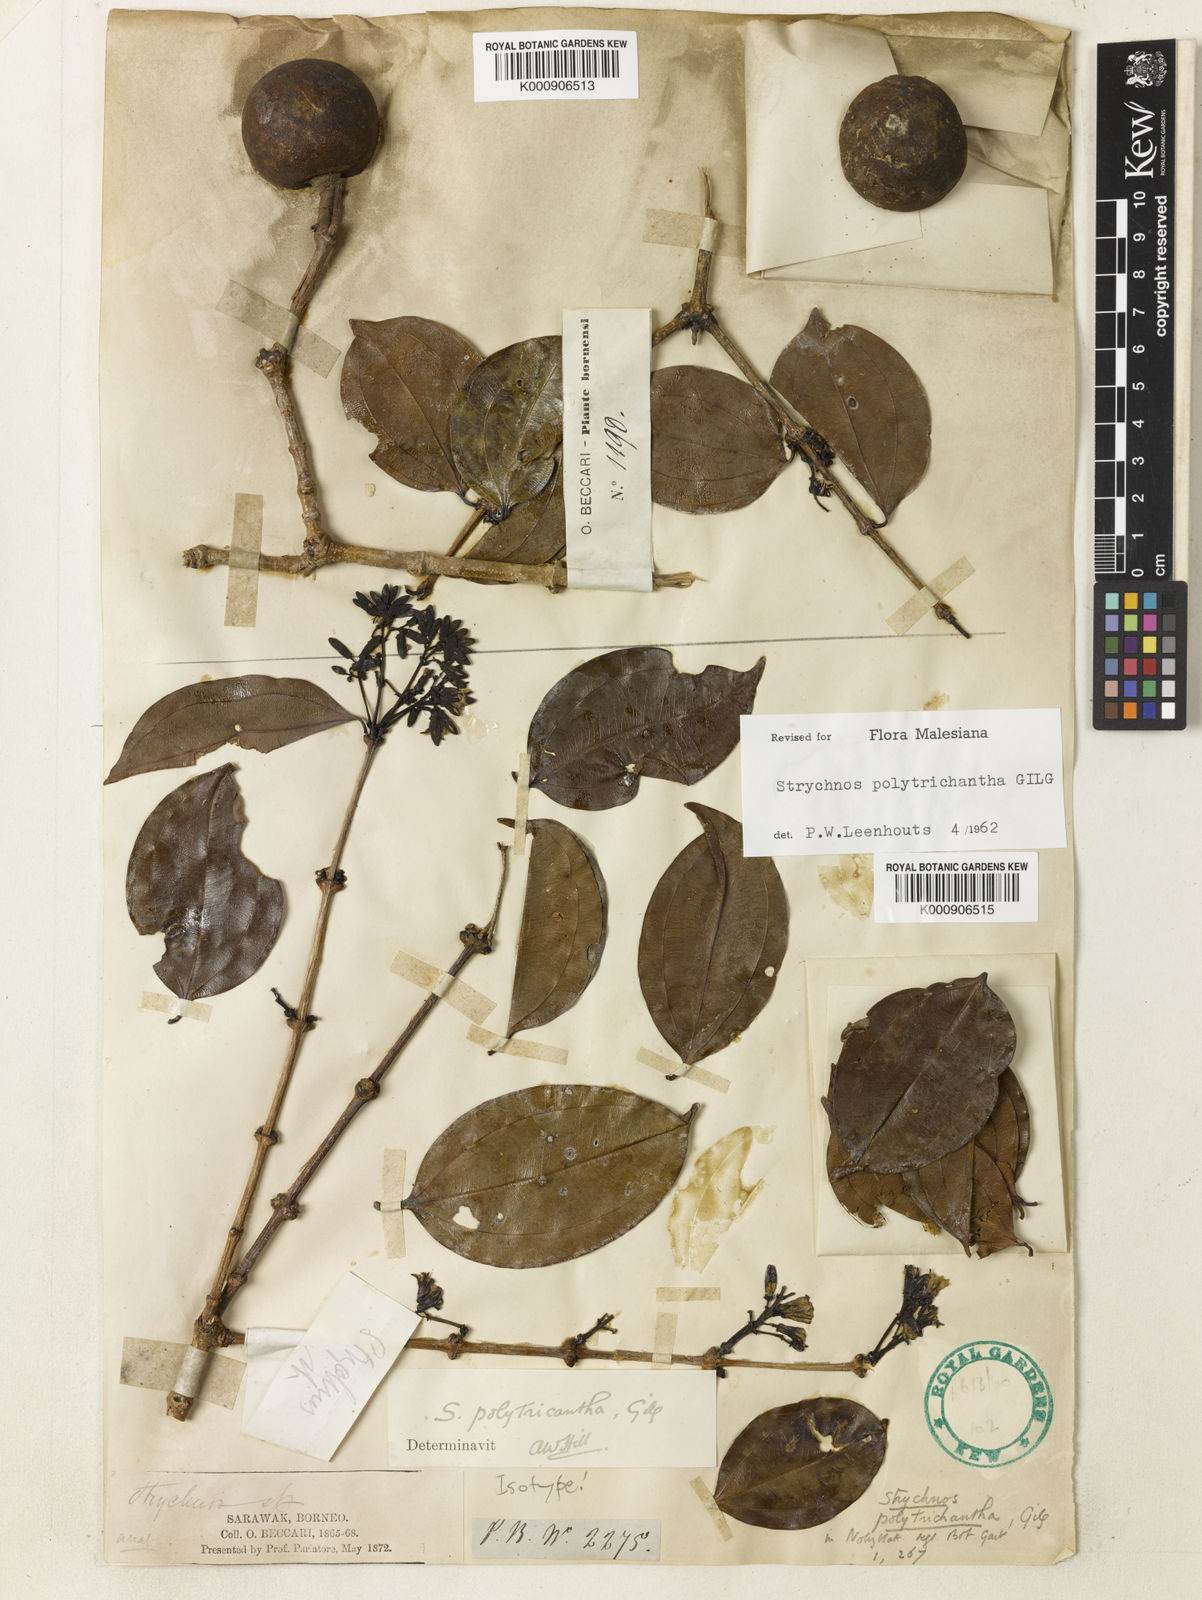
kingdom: Plantae
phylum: Tracheophyta
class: Magnoliopsida
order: Gentianales
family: Loganiaceae
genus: Strychnos
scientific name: Strychnos polytrichantha
